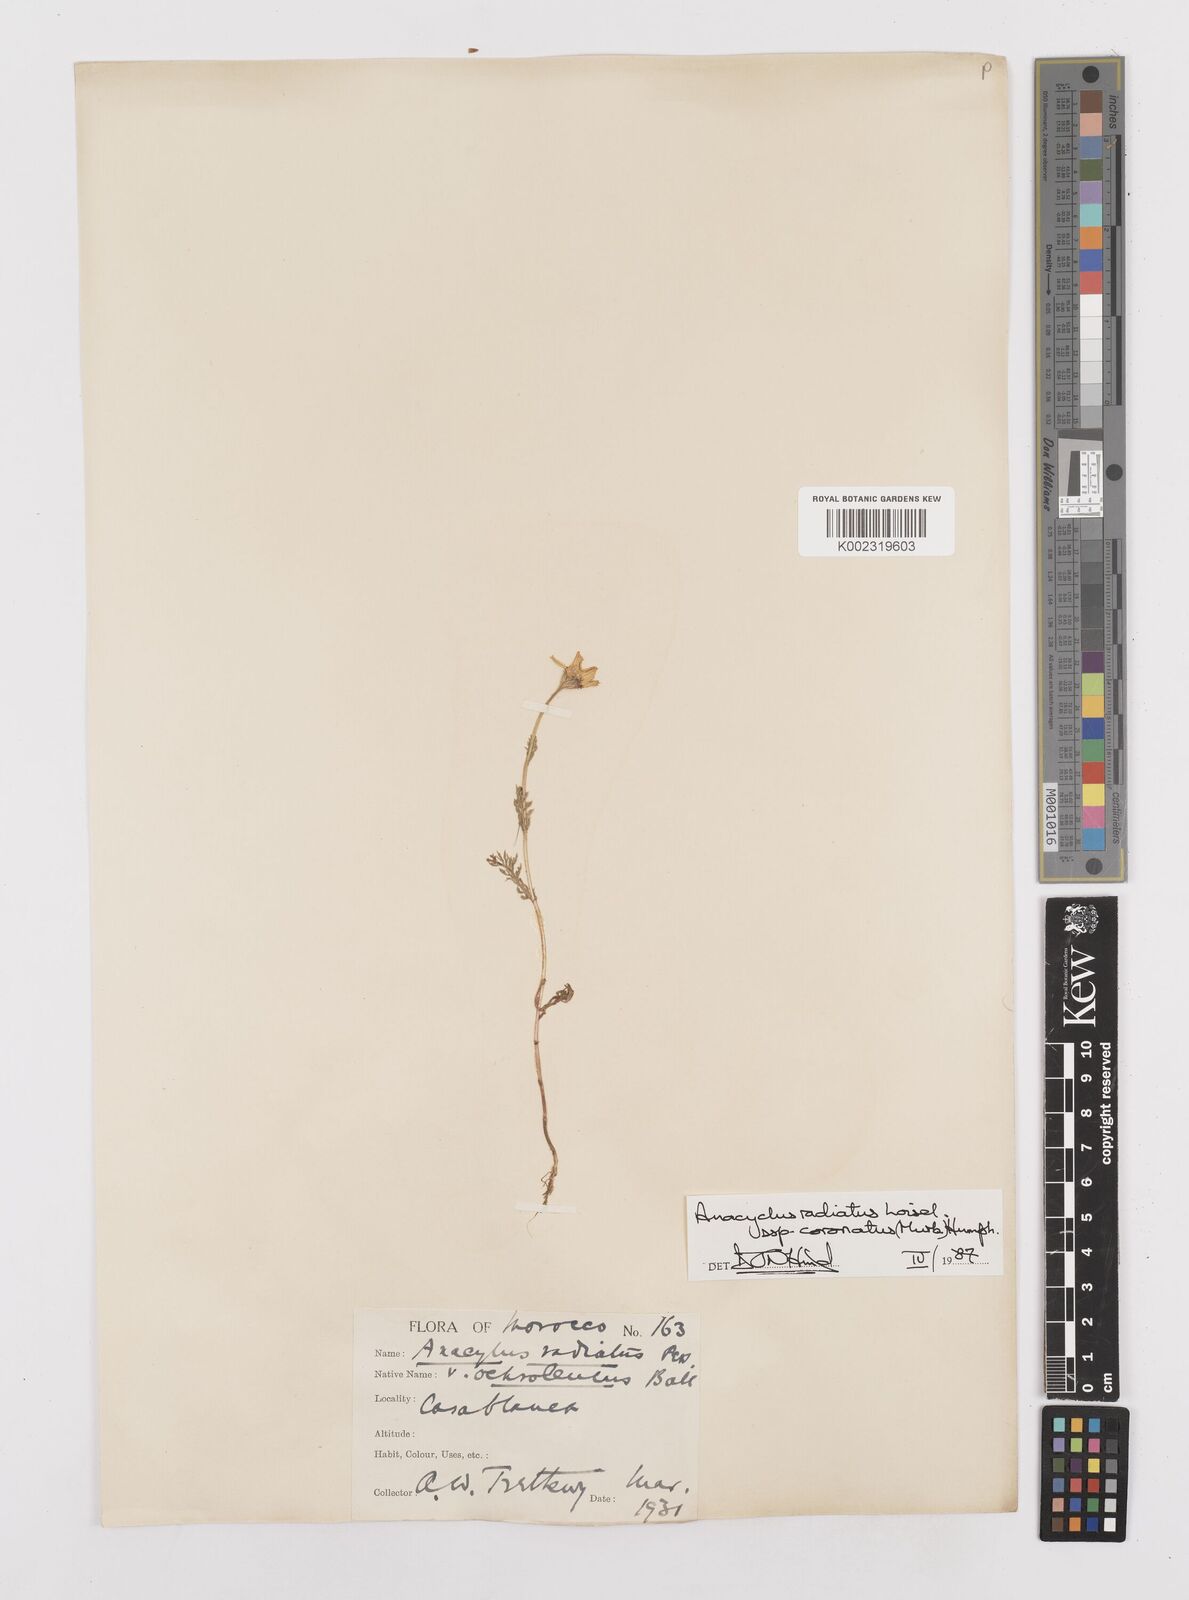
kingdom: Plantae
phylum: Tracheophyta
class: Magnoliopsida
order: Asterales
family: Asteraceae
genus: Anacyclus
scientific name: Anacyclus radiatus
